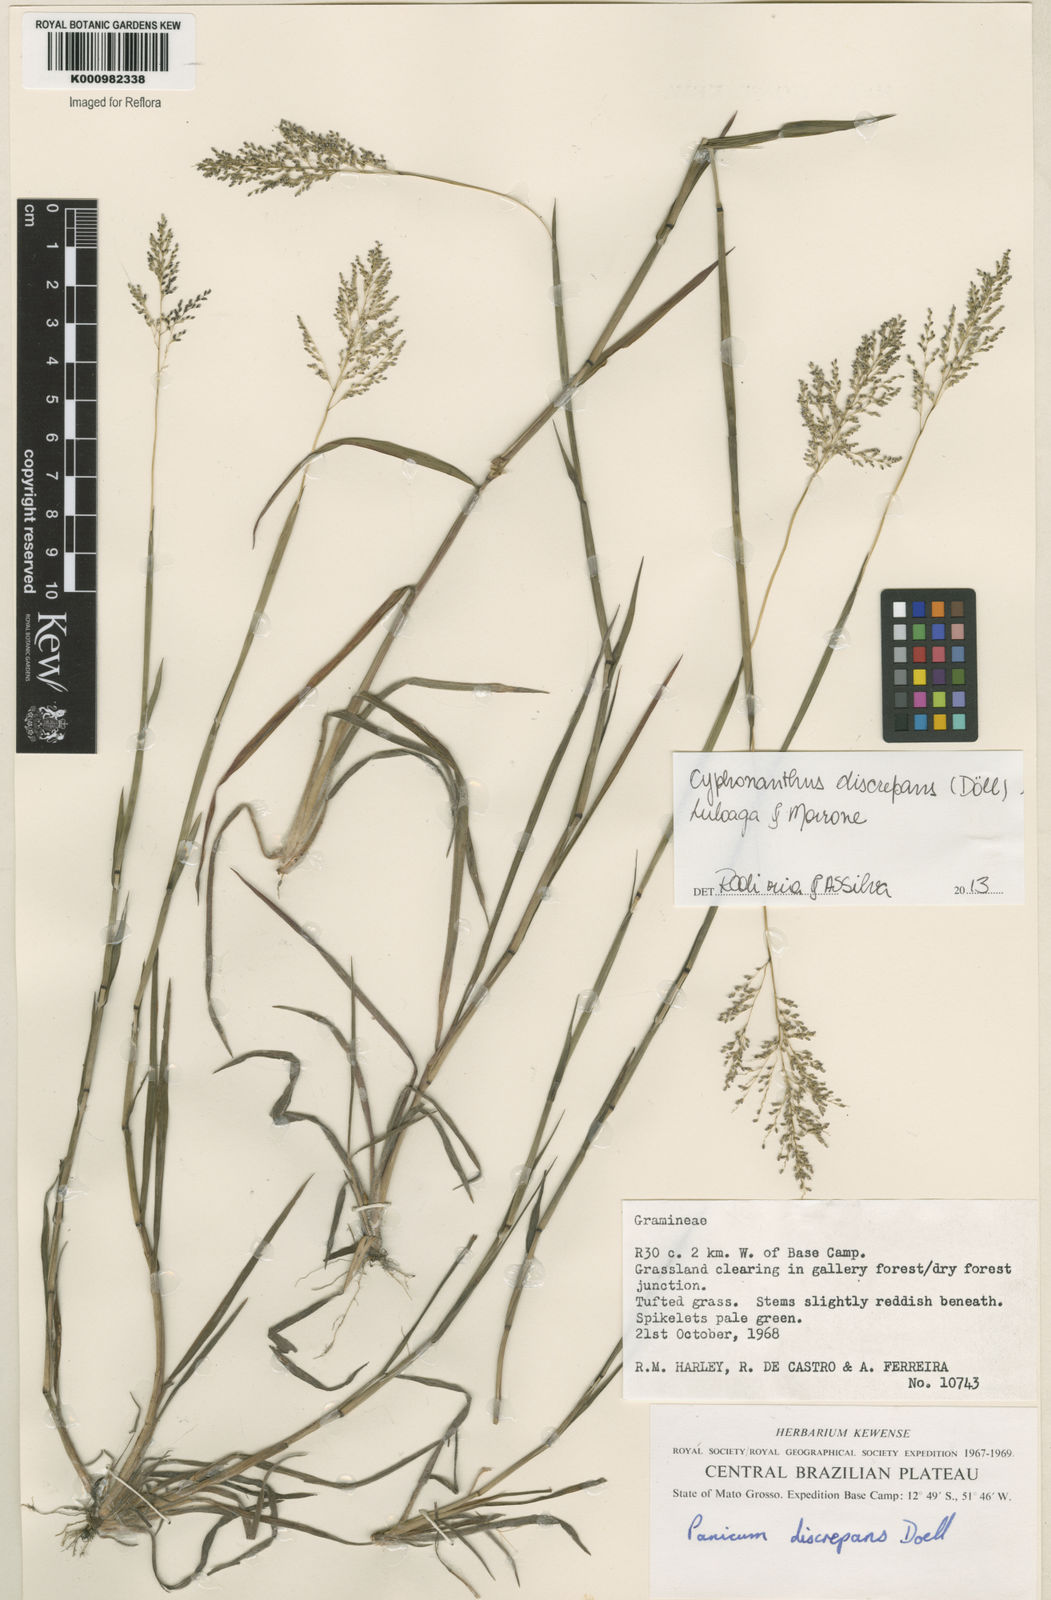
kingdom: Plantae
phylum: Tracheophyta
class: Liliopsida
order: Poales
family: Poaceae
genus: Panicum
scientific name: Panicum
